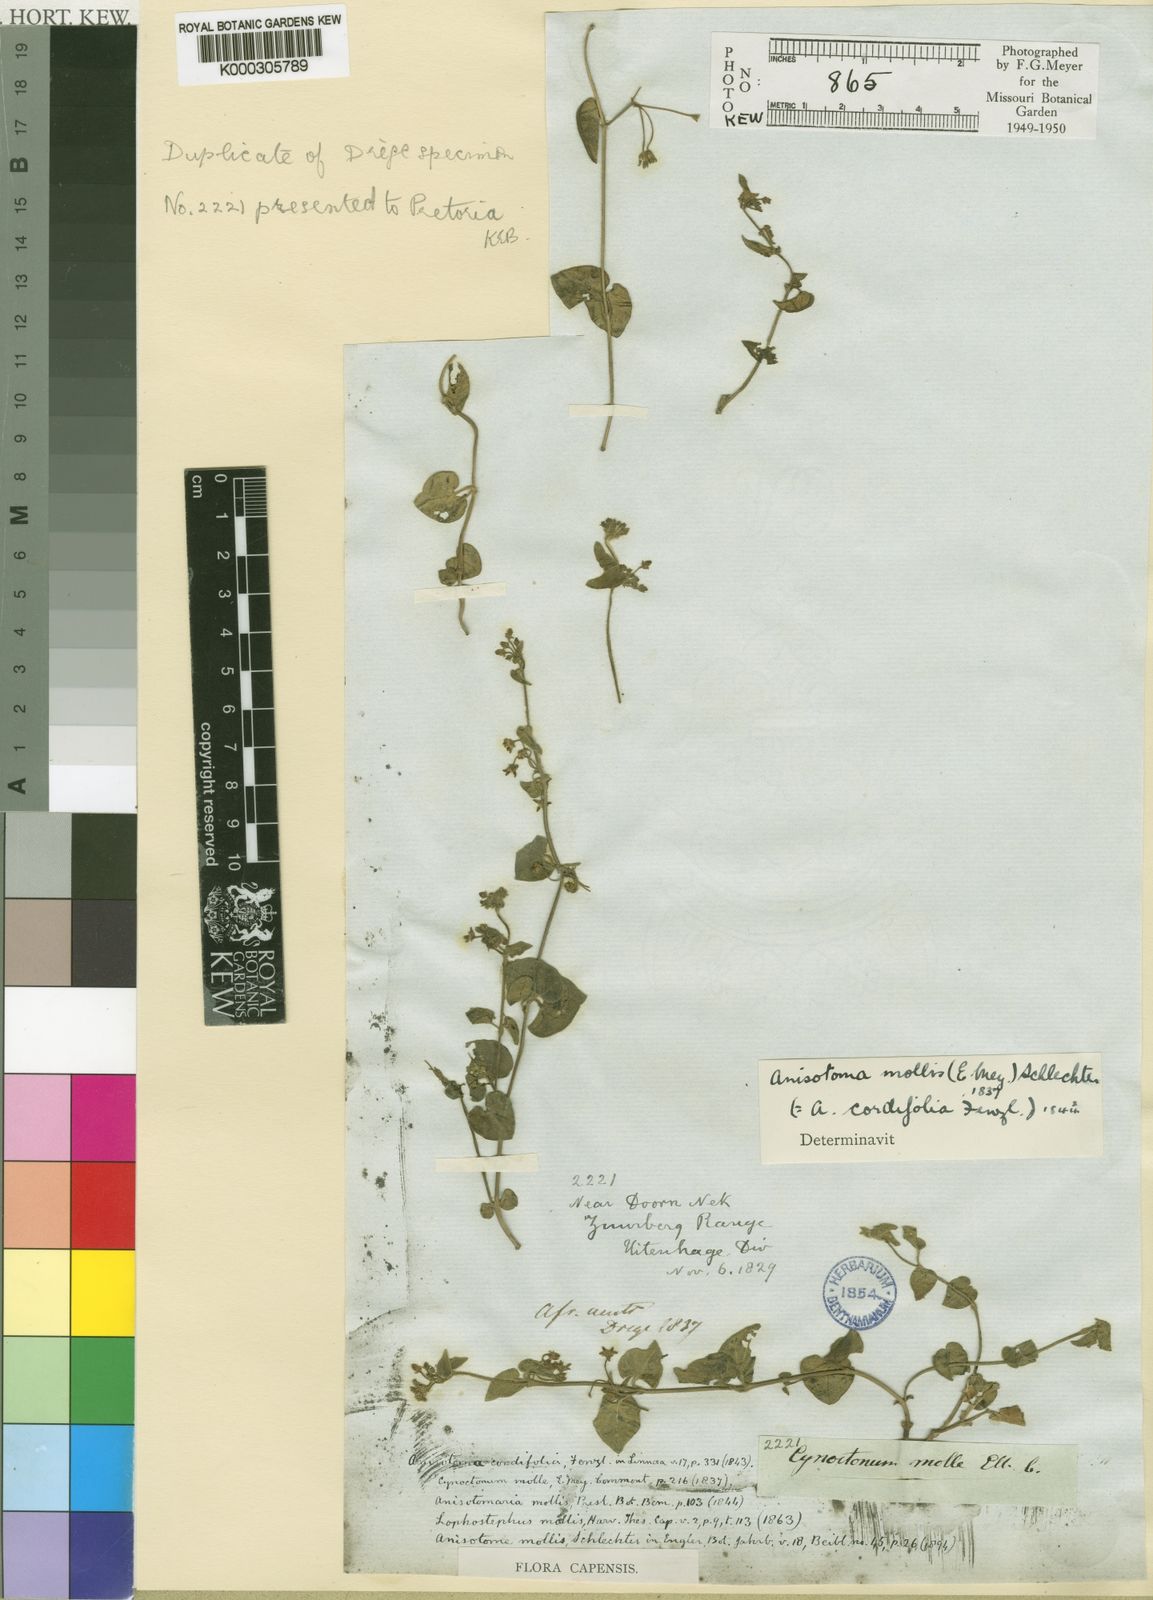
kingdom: Plantae
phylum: Tracheophyta
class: Magnoliopsida
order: Gentianales
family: Apocynaceae
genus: Anisotoma
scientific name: Anisotoma cordifolia
